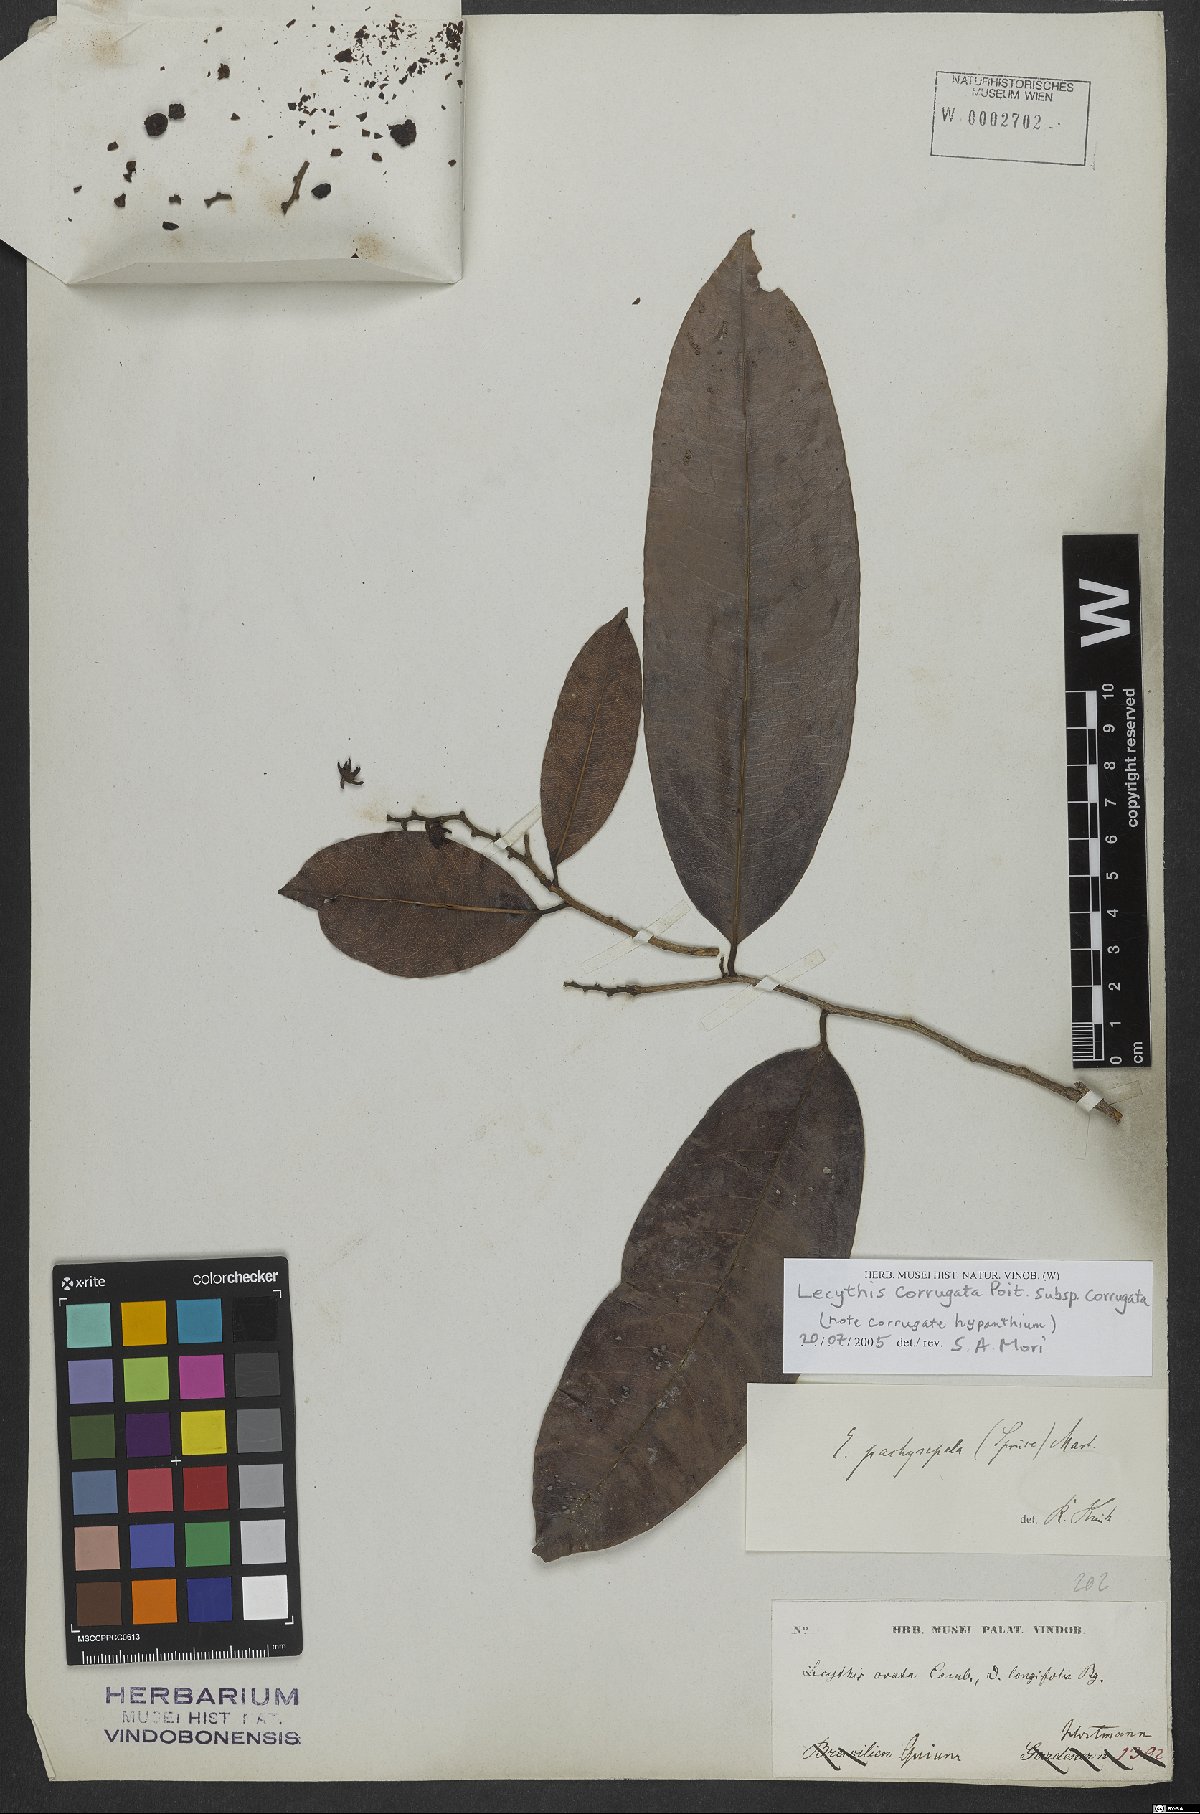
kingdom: Plantae
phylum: Tracheophyta
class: Magnoliopsida
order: Ericales
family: Lecythidaceae
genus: Lecythis
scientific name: Lecythis corrugata
